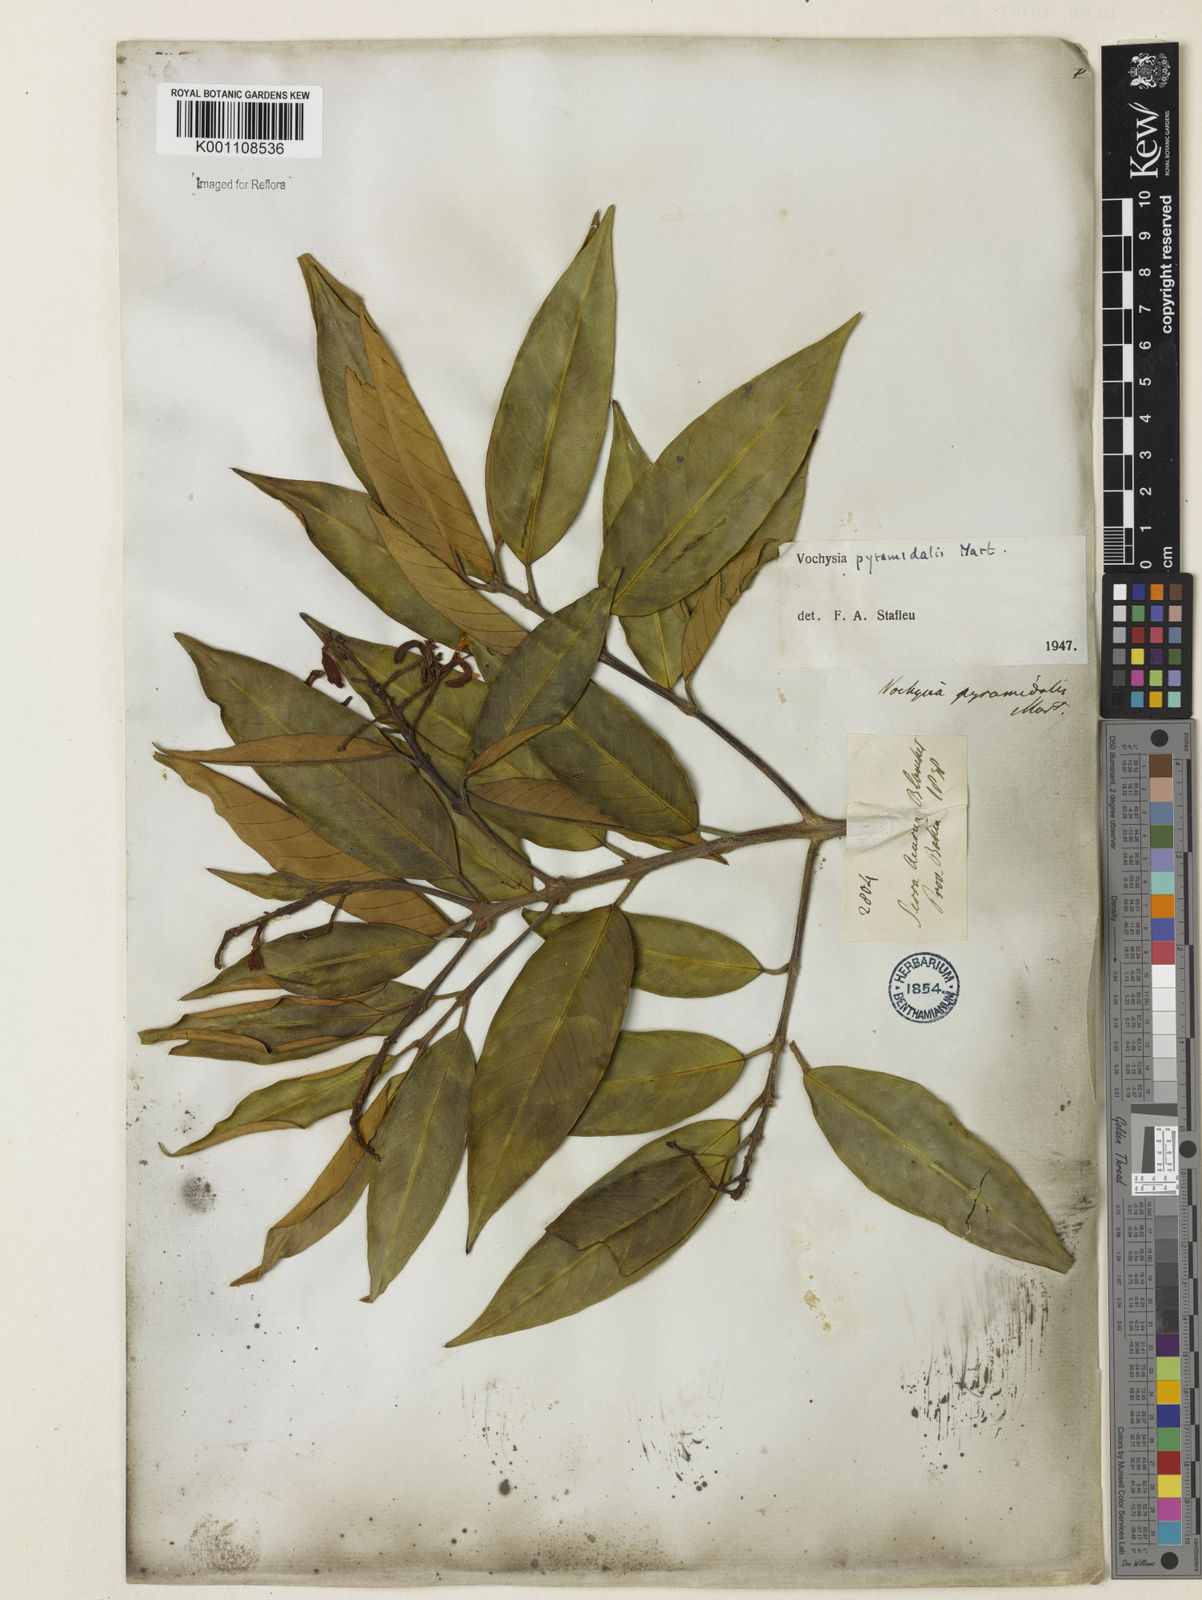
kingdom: Plantae
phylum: Tracheophyta
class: Magnoliopsida
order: Myrtales
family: Vochysiaceae
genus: Vochysia
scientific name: Vochysia pyramidalis
